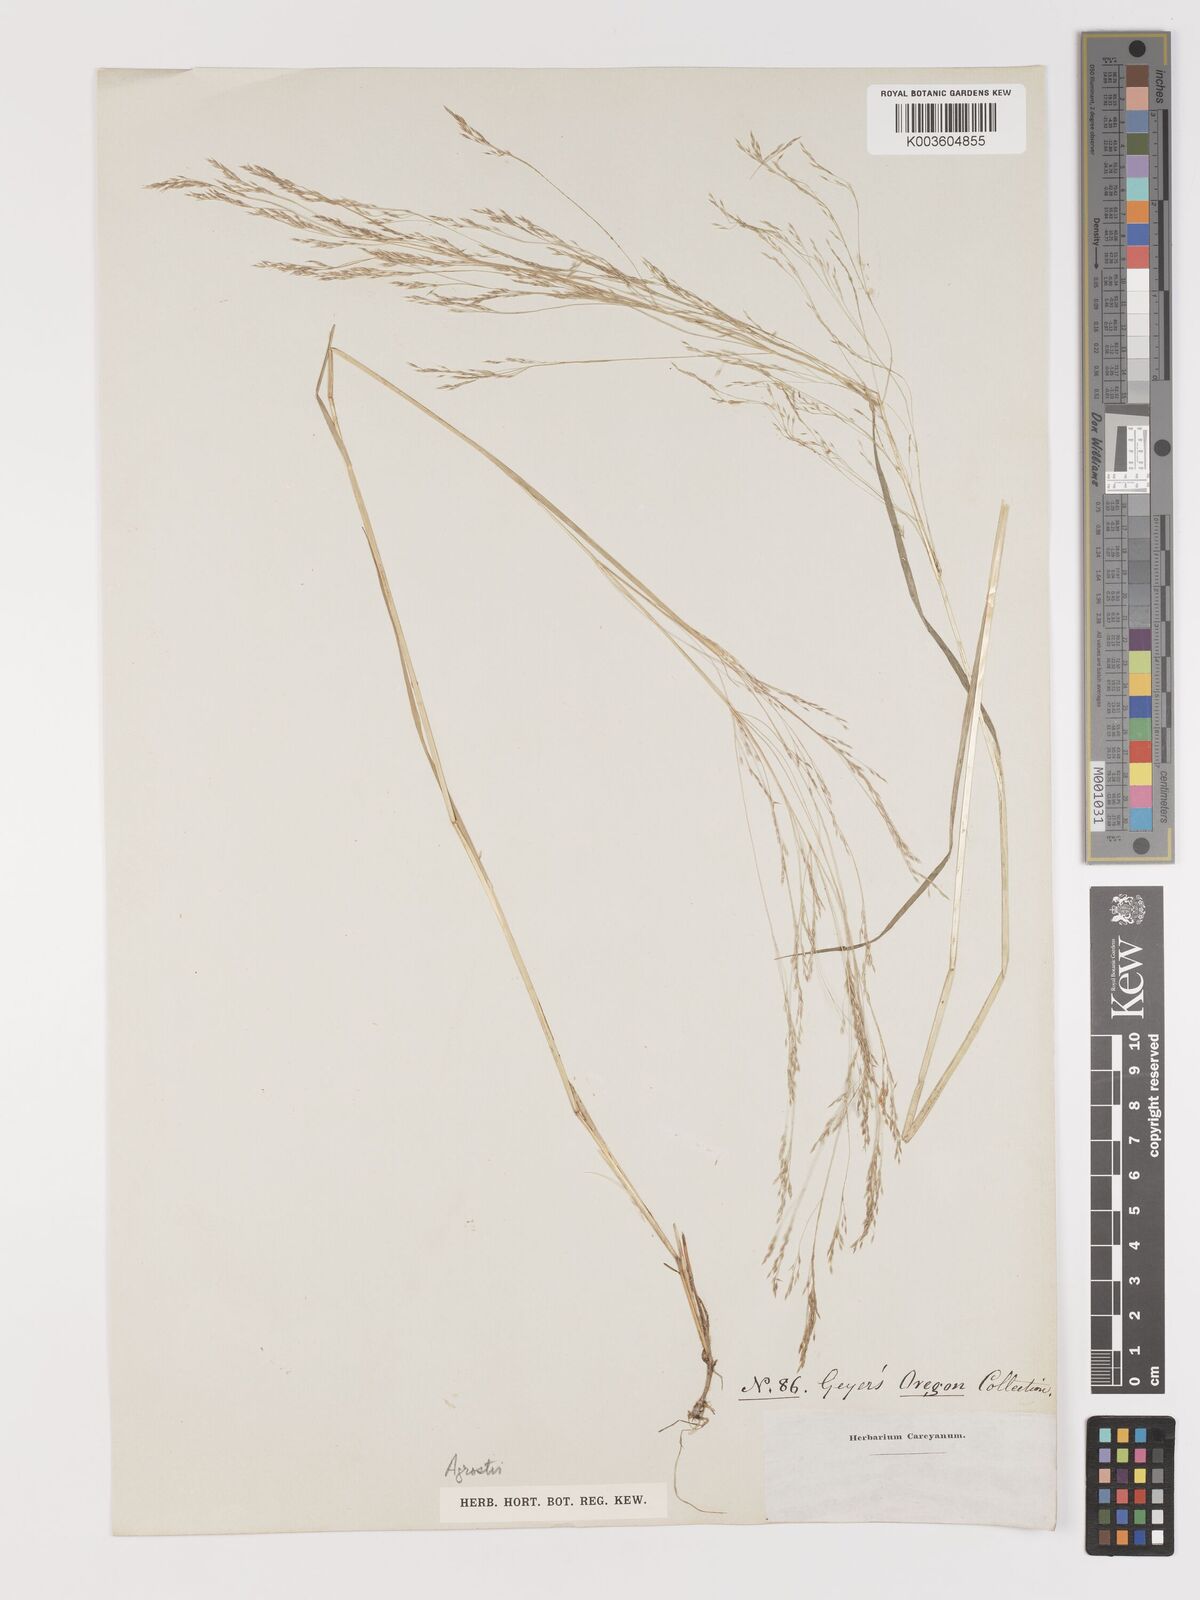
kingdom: Plantae
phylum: Tracheophyta
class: Liliopsida
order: Poales
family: Poaceae
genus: Agrostis
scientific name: Agrostis
